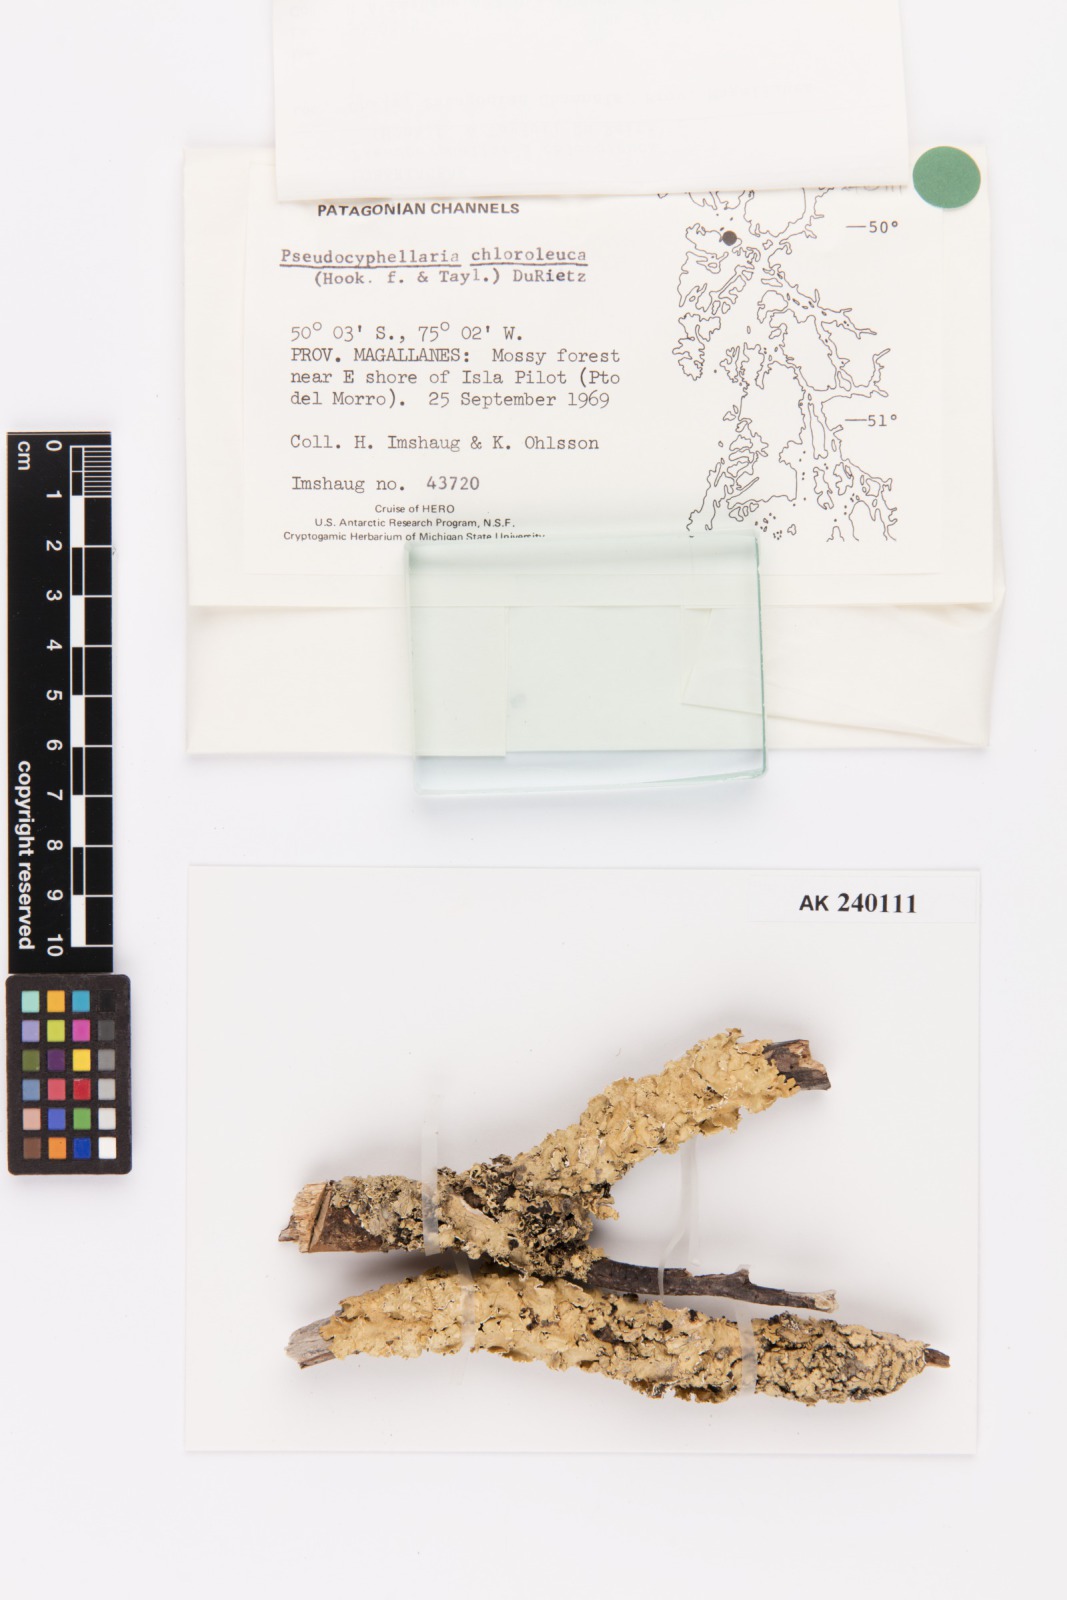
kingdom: Fungi
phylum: Ascomycota
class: Lecanoromycetes
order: Peltigerales
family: Lobariaceae
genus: Pseudocyphellaria
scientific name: Pseudocyphellaria chloroleuca
